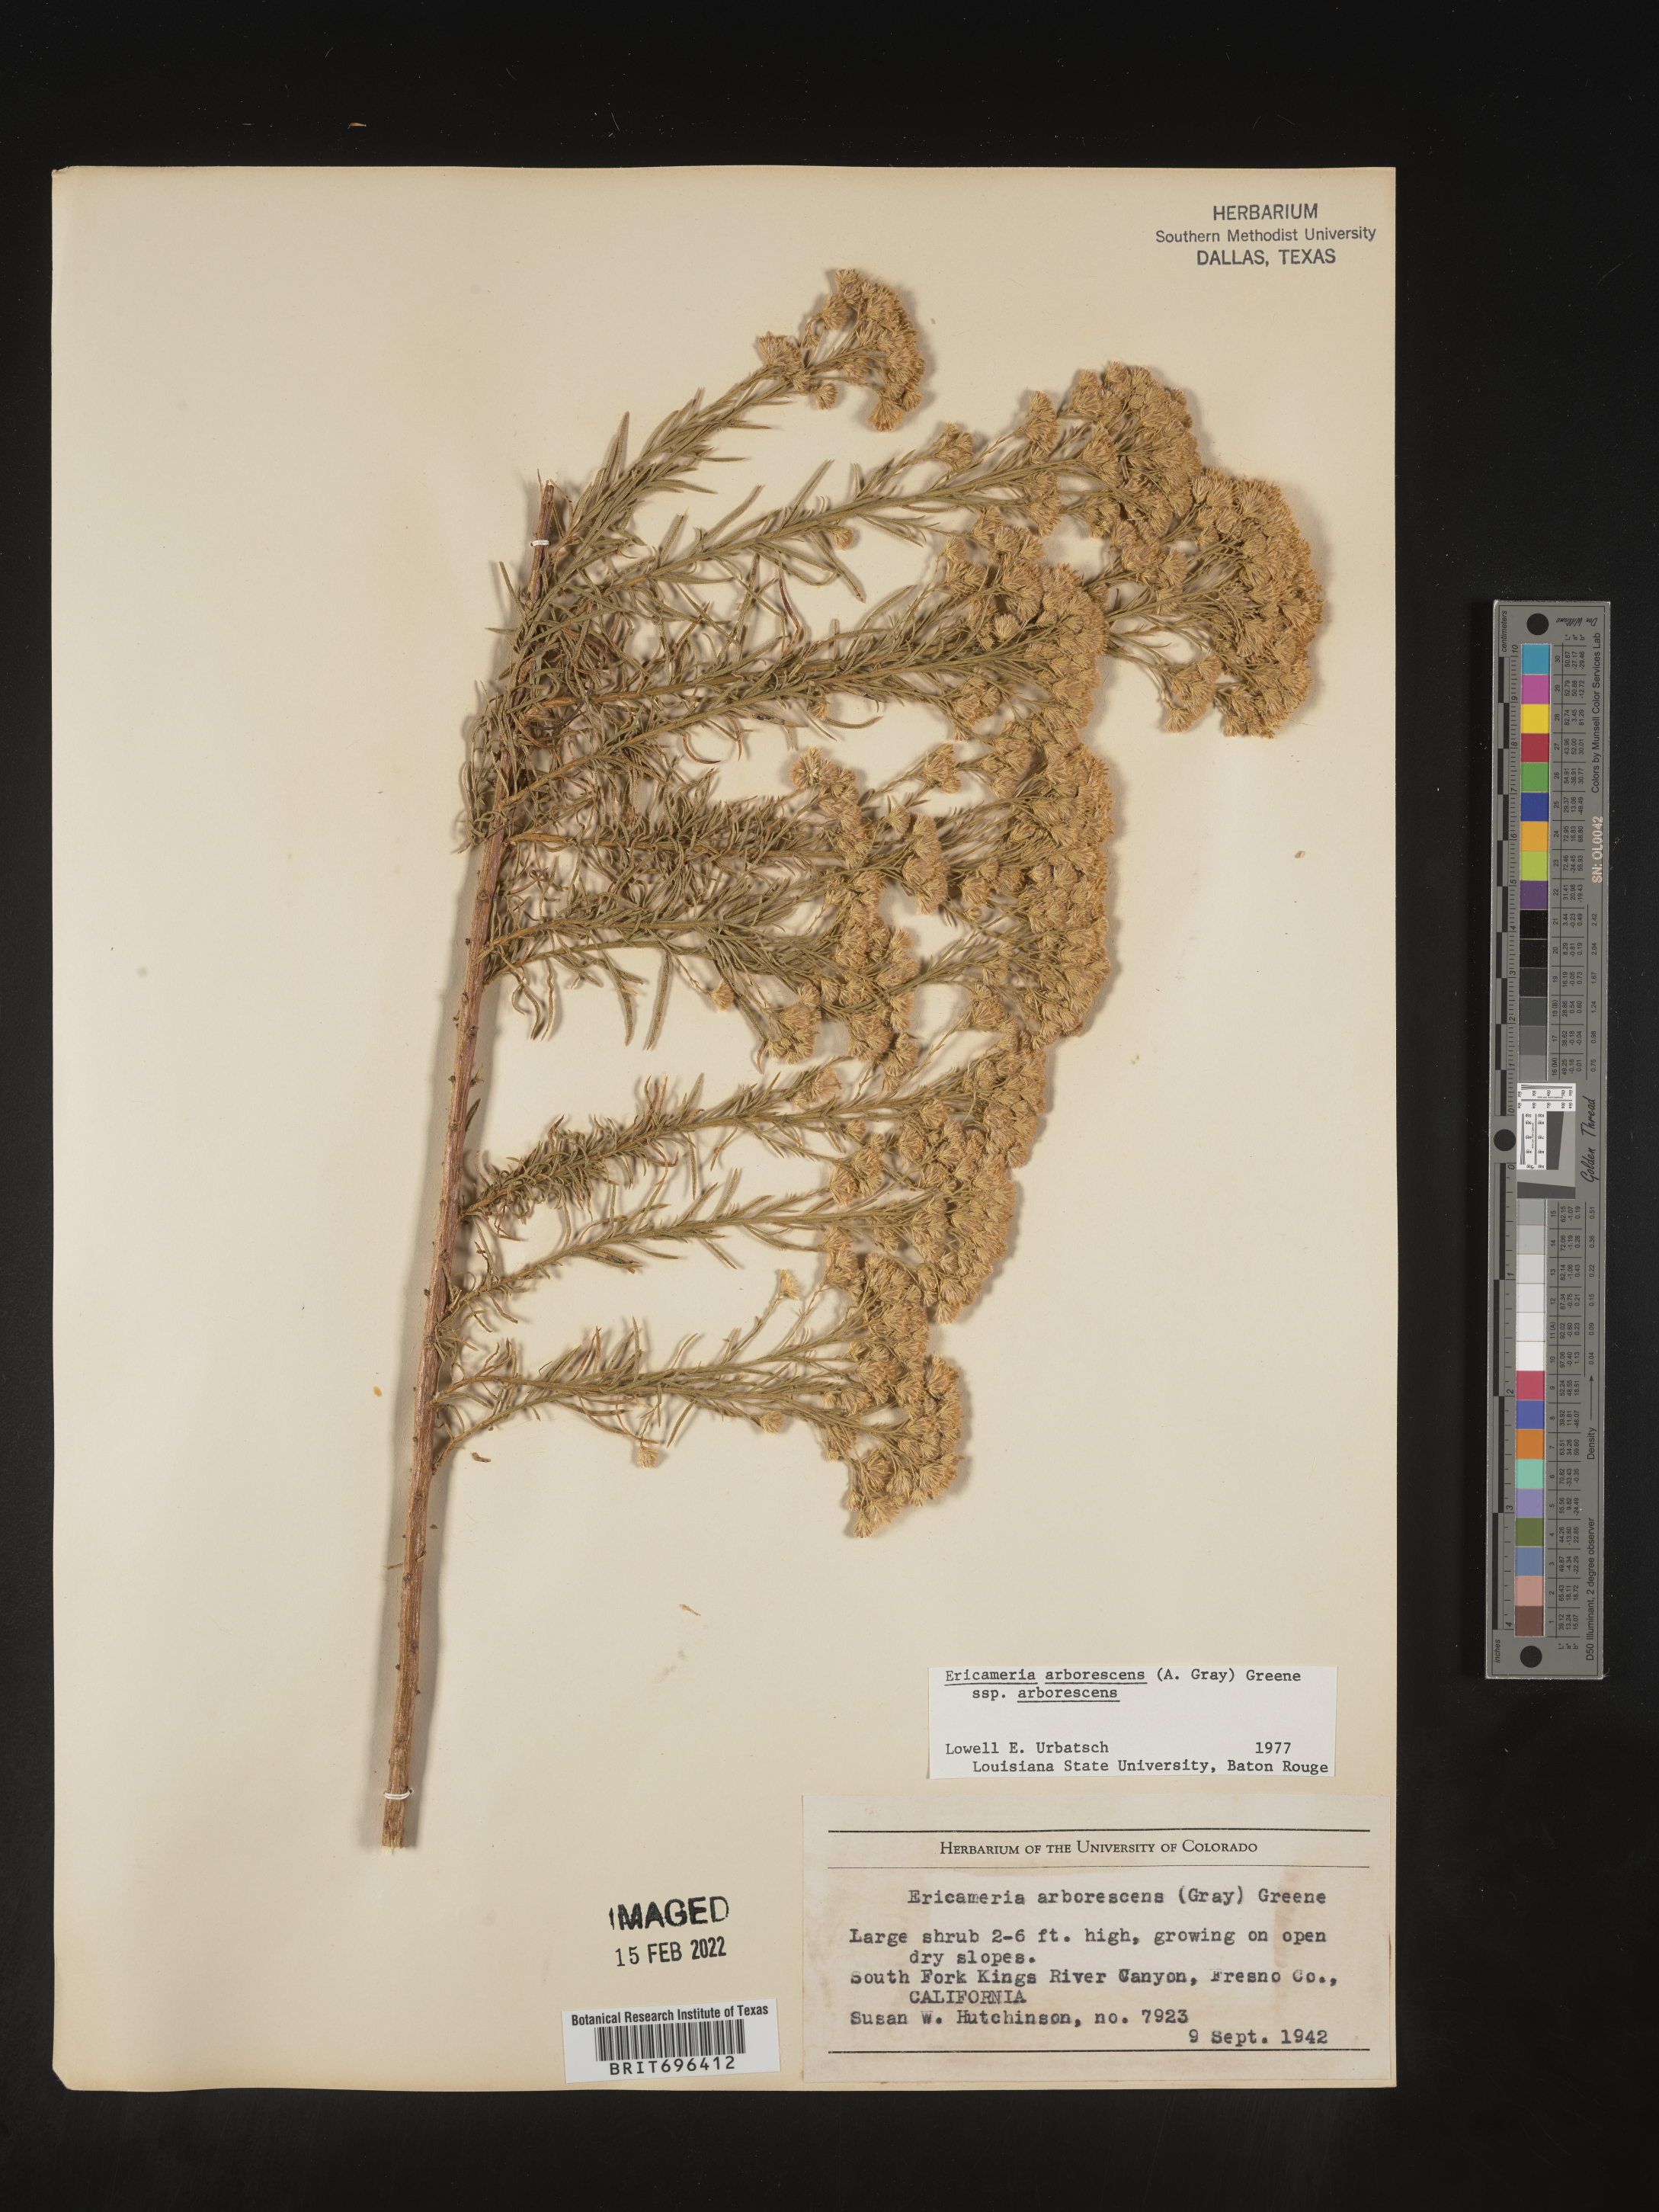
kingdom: Plantae
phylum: Tracheophyta
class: Magnoliopsida
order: Asterales
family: Asteraceae
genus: Ericameria
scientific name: Ericameria arborescens
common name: Goldenfleece
